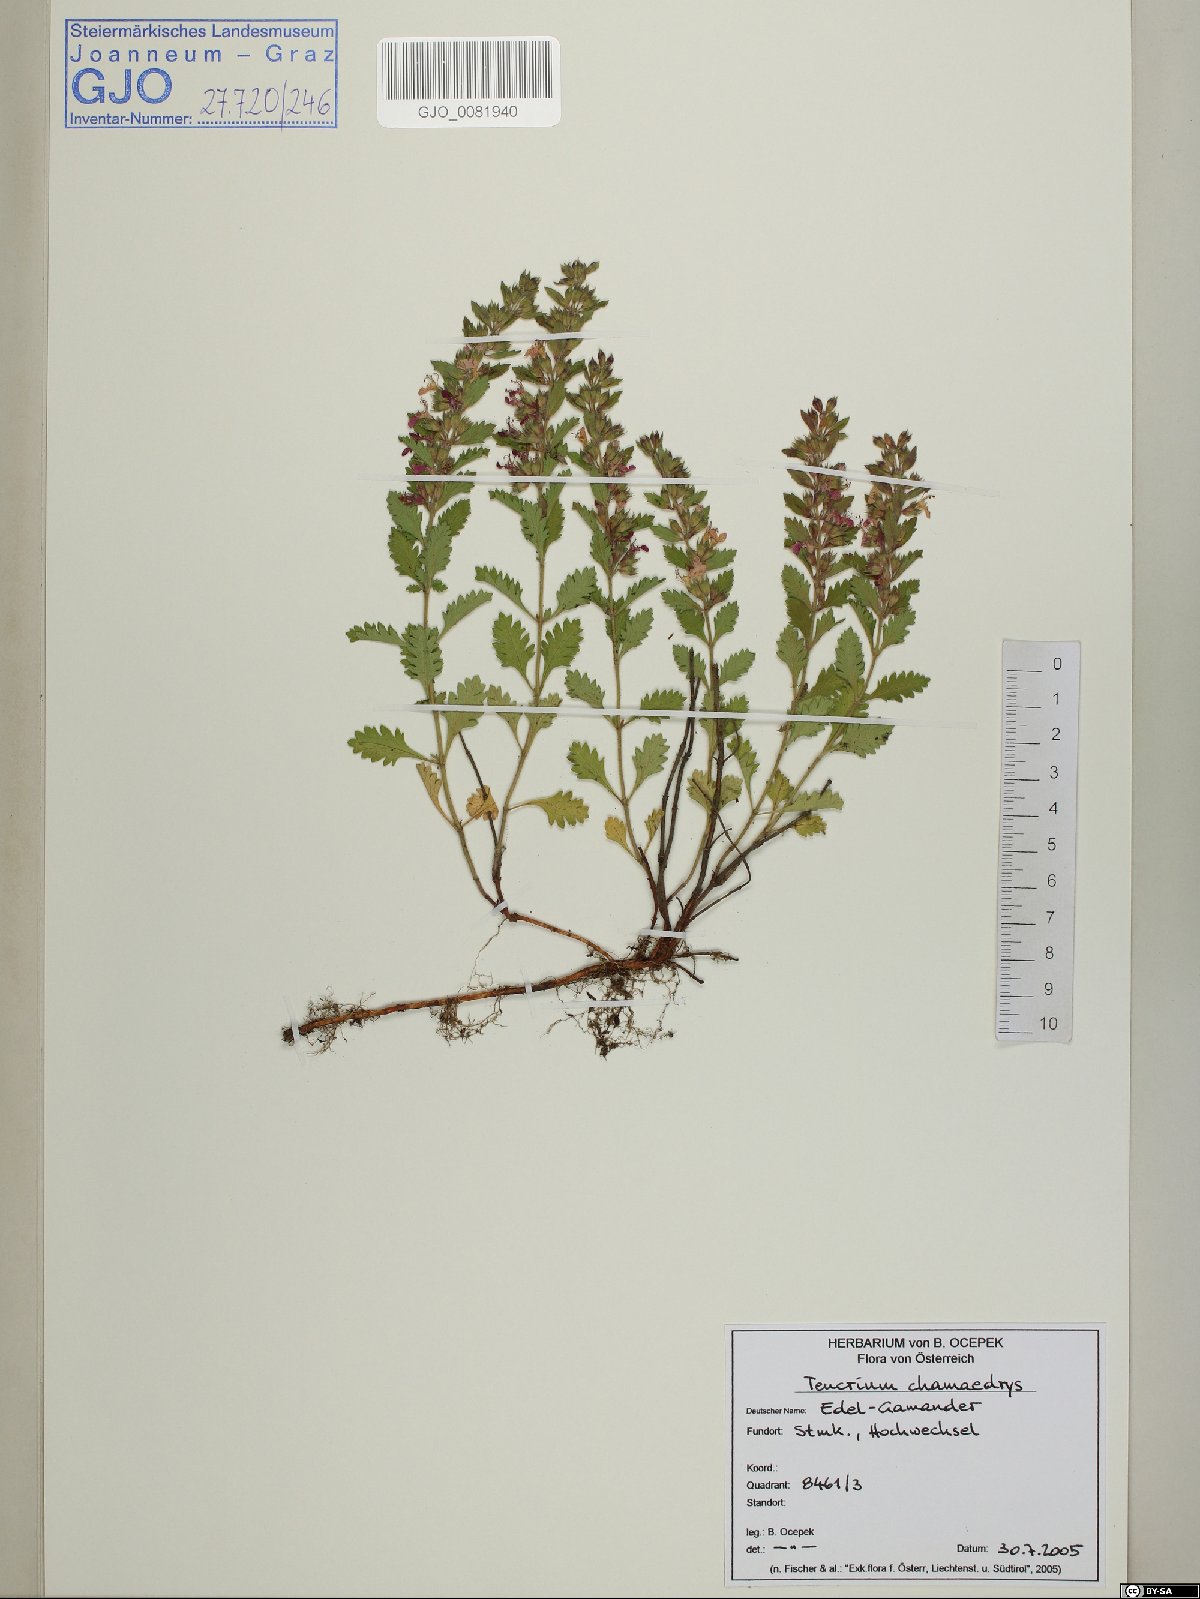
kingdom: Plantae
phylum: Tracheophyta
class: Magnoliopsida
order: Lamiales
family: Lamiaceae
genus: Teucrium
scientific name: Teucrium chamaedrys
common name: Wall germander
